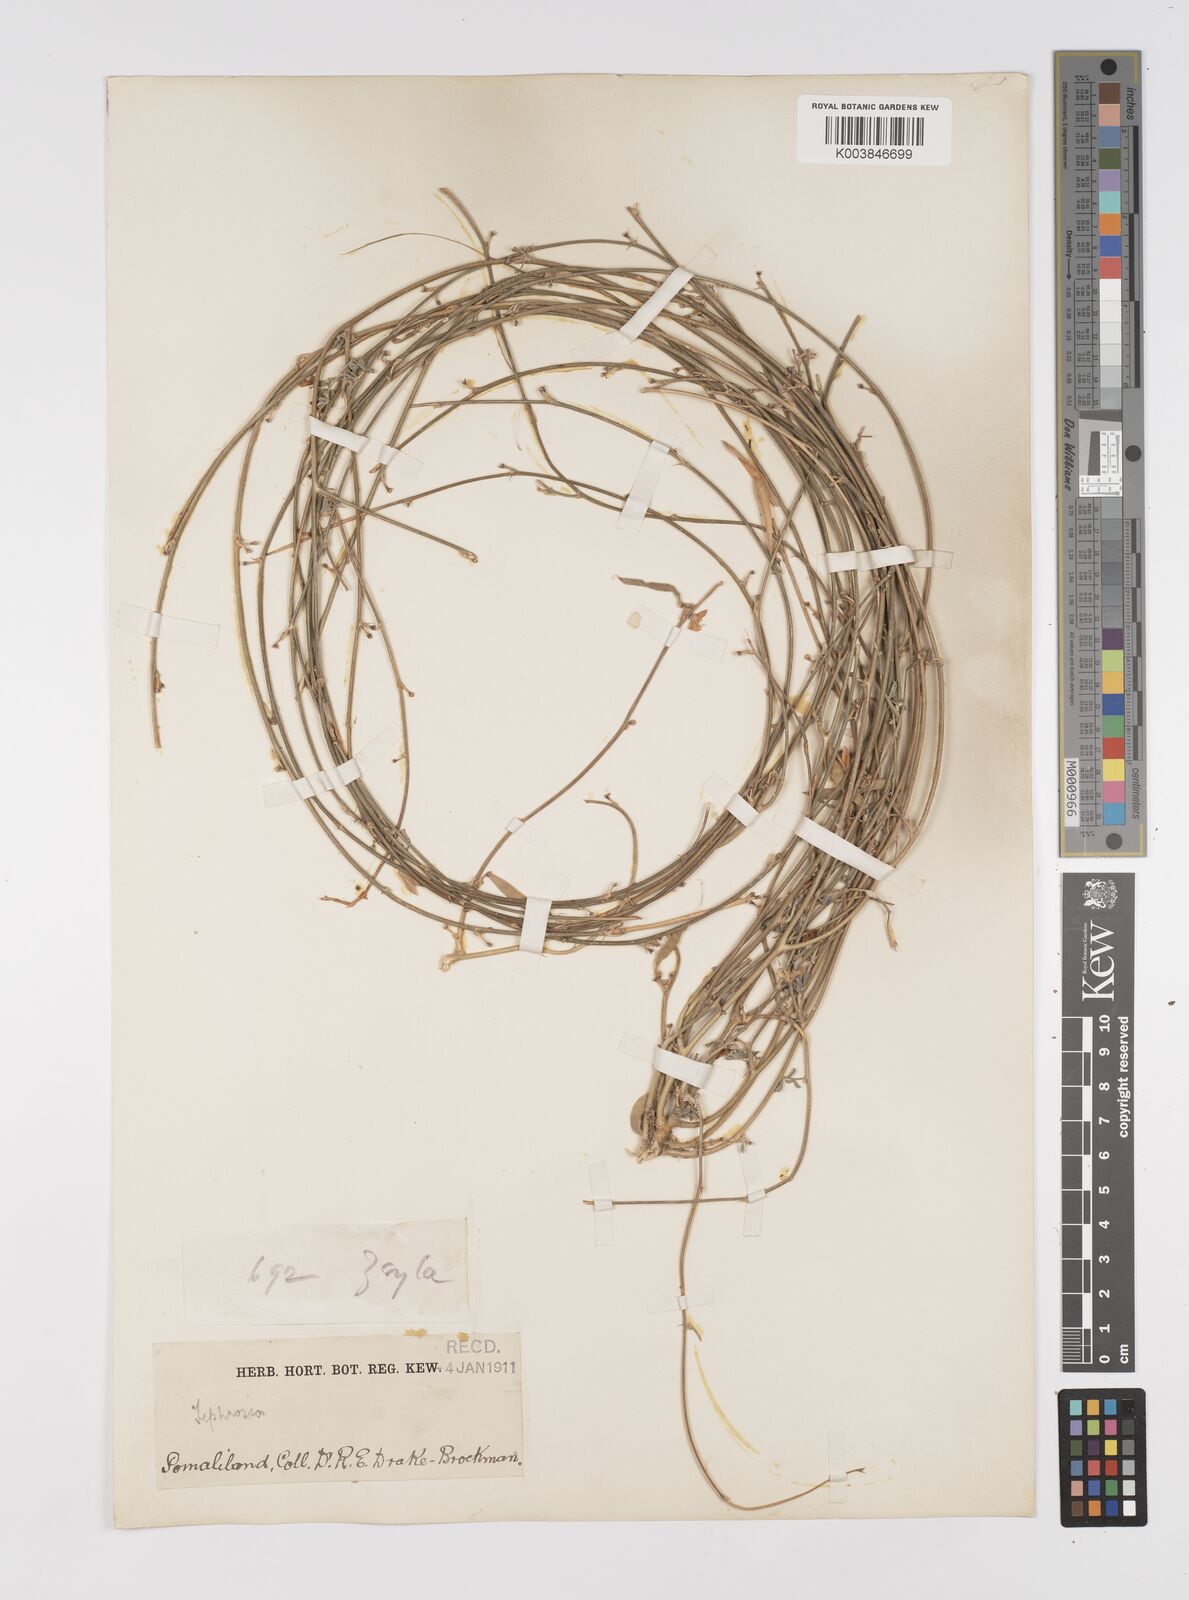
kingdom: Plantae
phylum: Tracheophyta
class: Magnoliopsida
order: Fabales
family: Fabaceae
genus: Tephrosia
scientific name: Tephrosia
